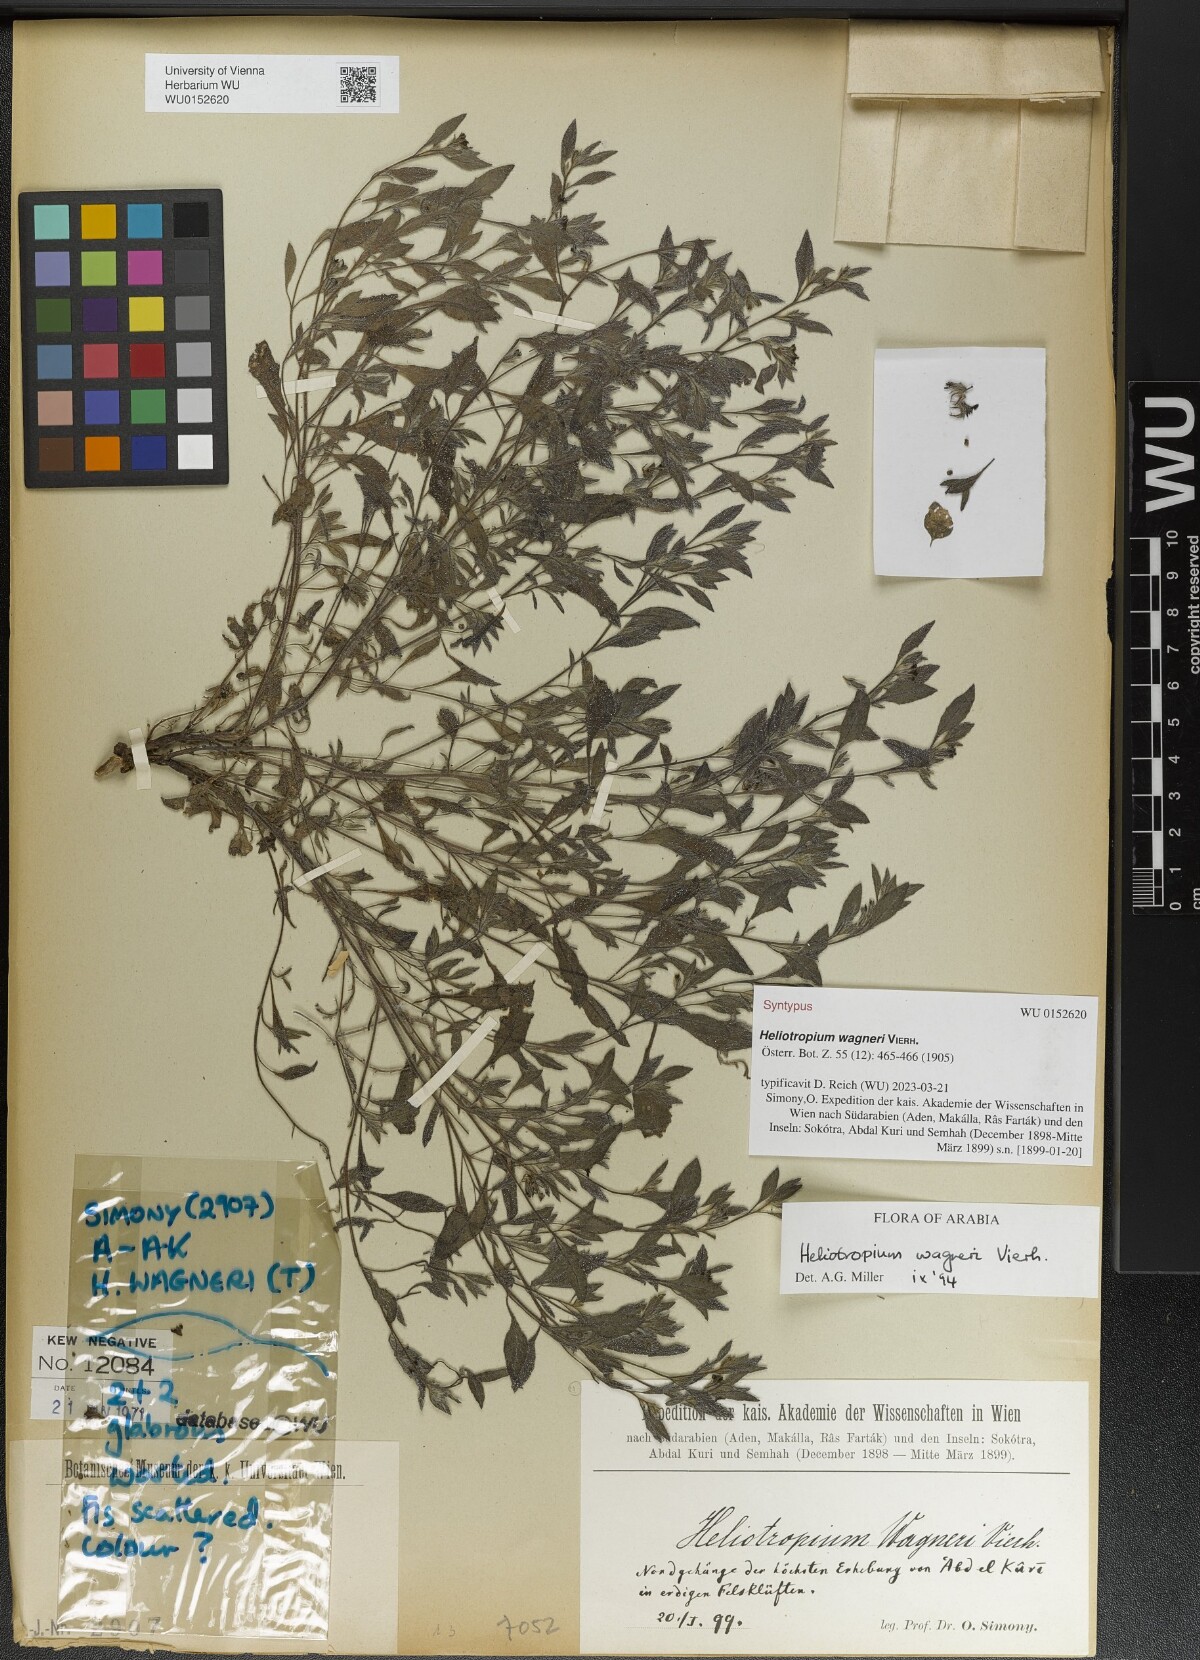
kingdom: Plantae
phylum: Tracheophyta
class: Magnoliopsida
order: Boraginales
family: Heliotropiaceae
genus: Heliotropium
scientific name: Heliotropium wagneri
